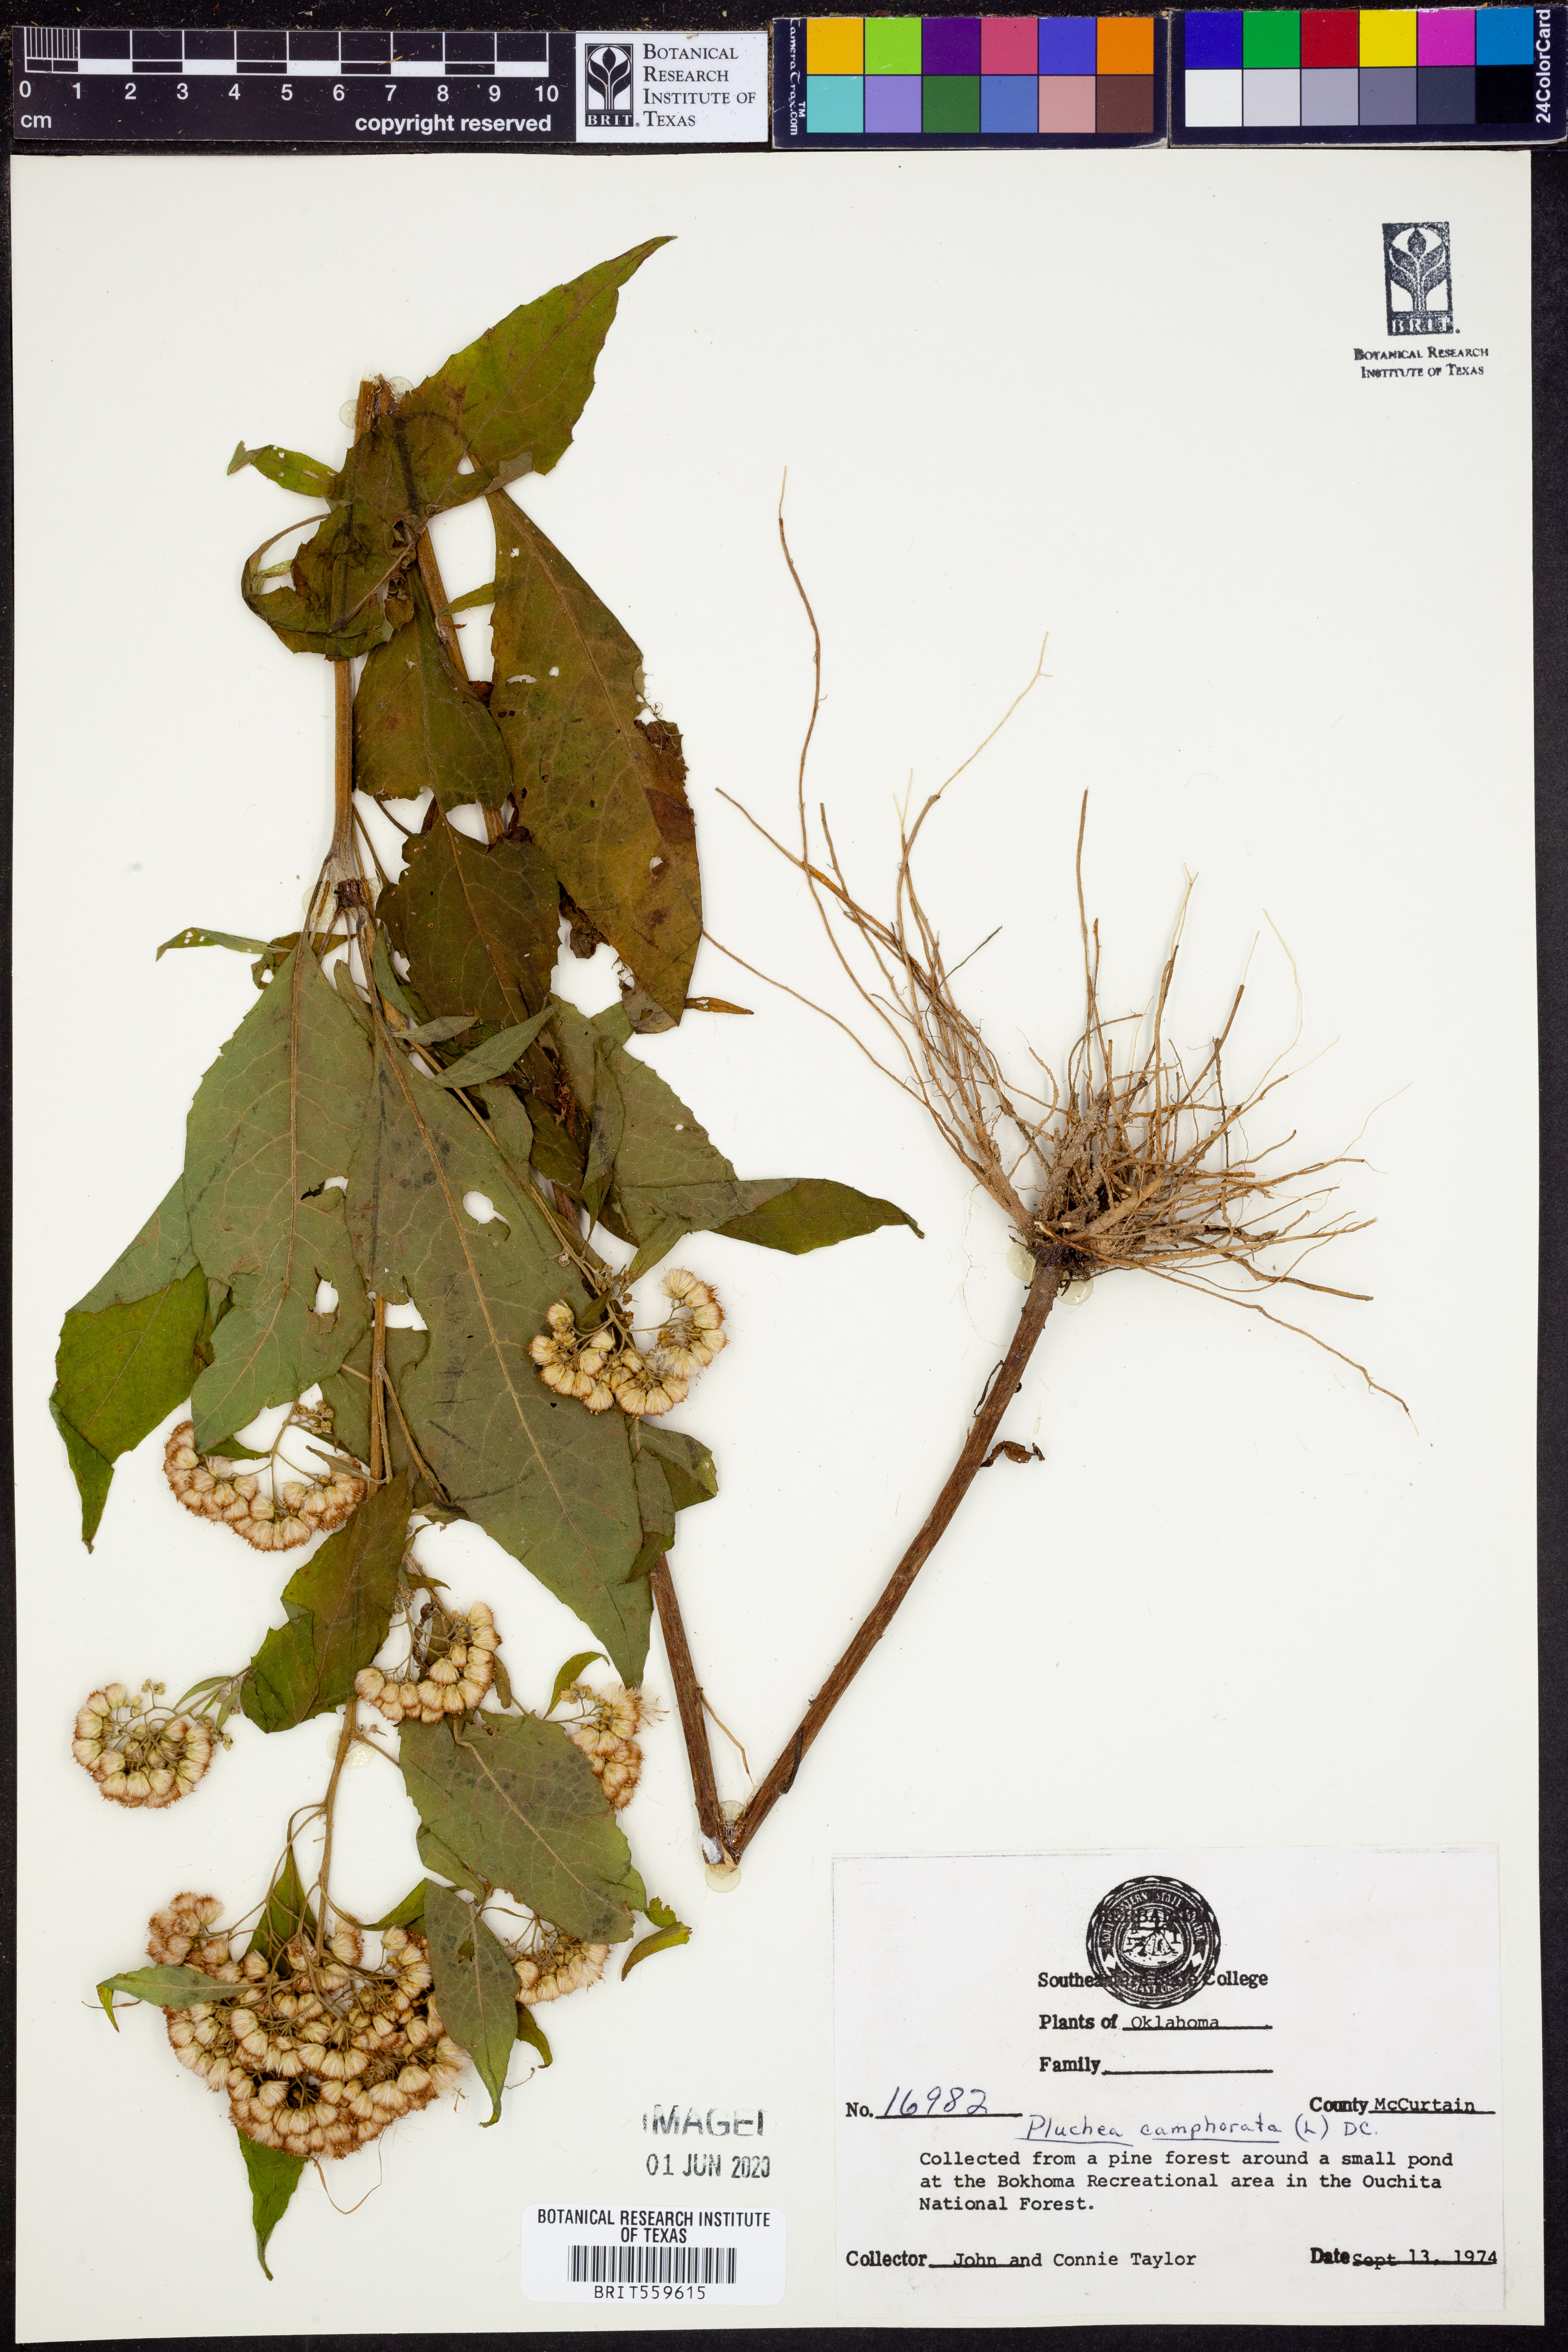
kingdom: Plantae
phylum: Tracheophyta
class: Magnoliopsida
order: Asterales
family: Asteraceae
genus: Pluchea
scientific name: Pluchea camphorata
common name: Camphor pluchea
